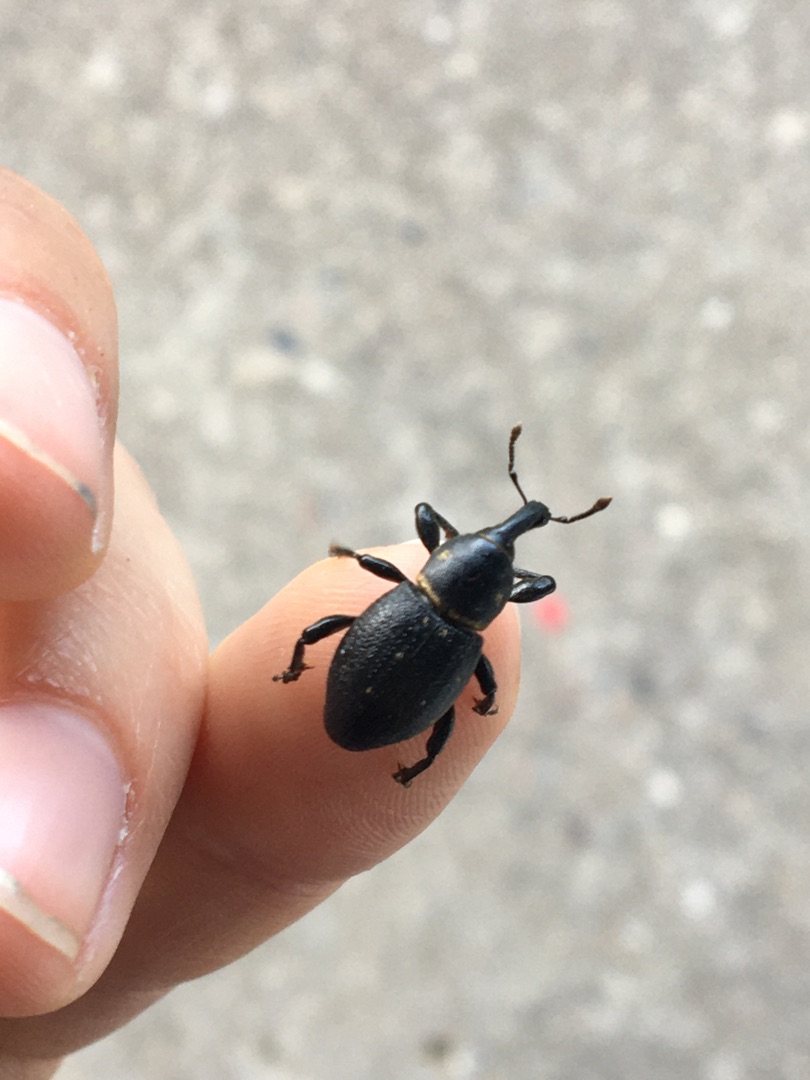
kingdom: Animalia
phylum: Arthropoda
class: Insecta
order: Coleoptera
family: Curculionidae
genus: Liparus
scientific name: Liparus coronatus
